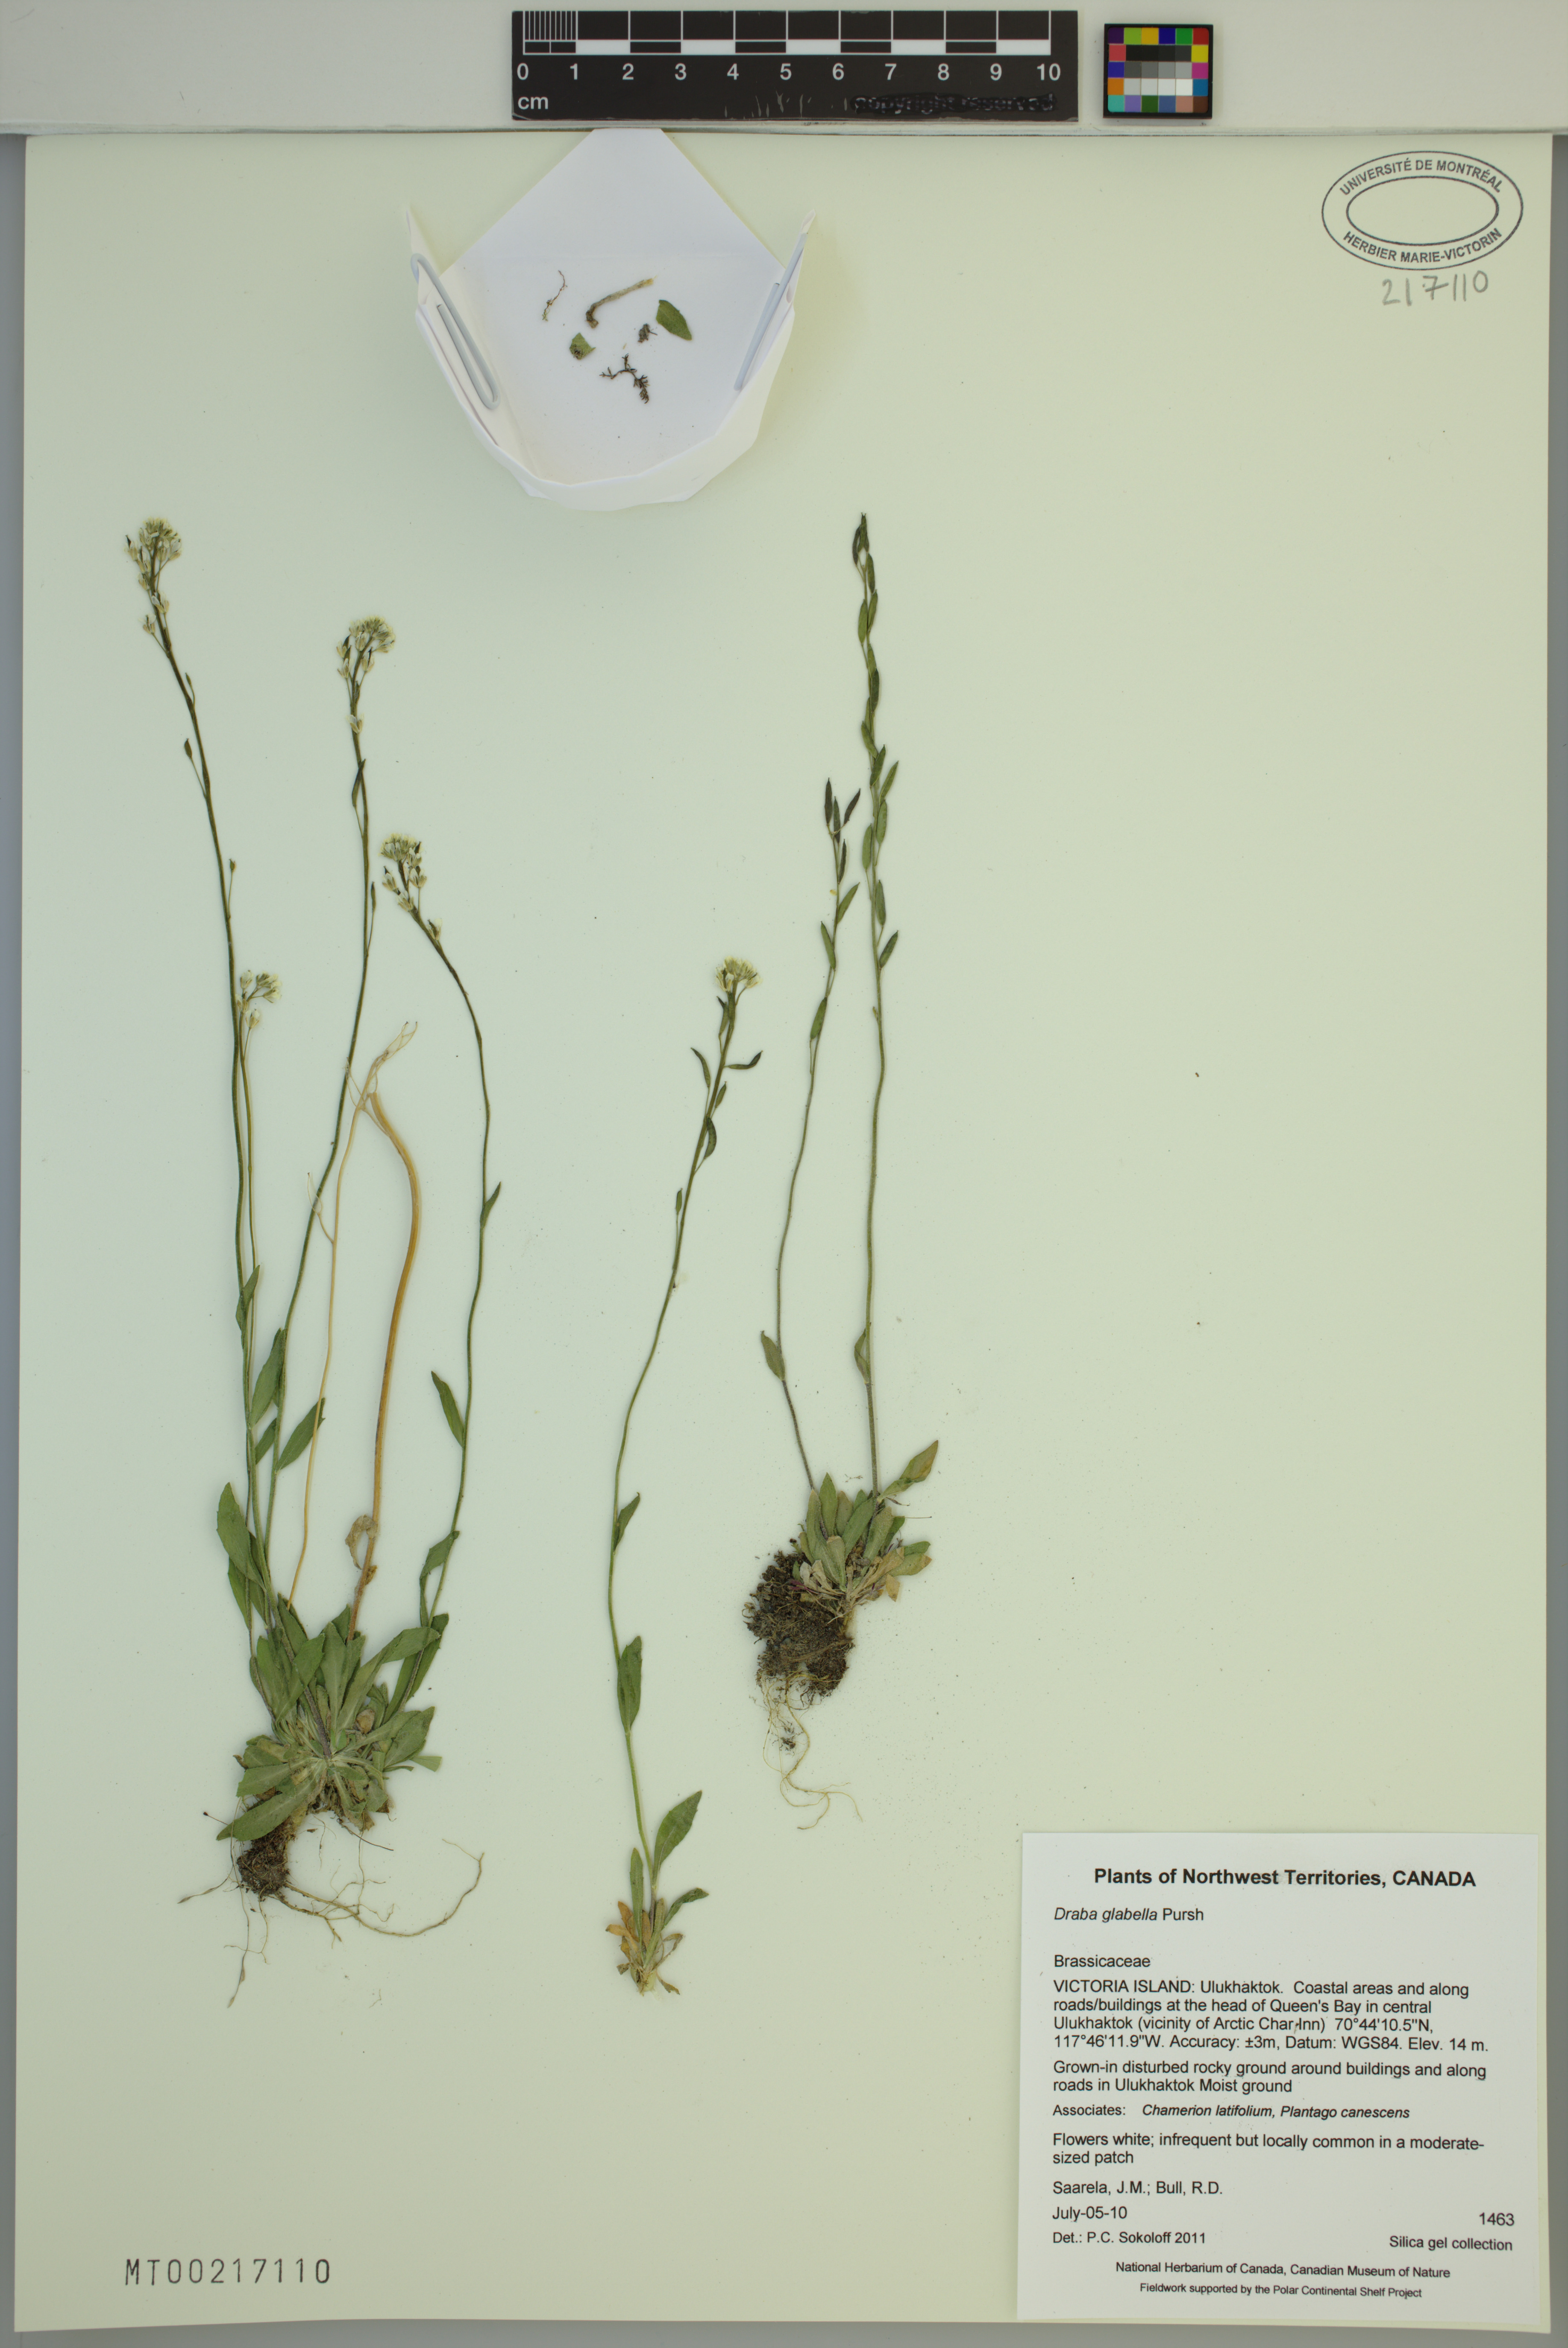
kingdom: Plantae
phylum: Tracheophyta
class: Magnoliopsida
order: Brassicales
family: Brassicaceae
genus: Draba
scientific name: Draba glabella
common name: Glaucous draba
